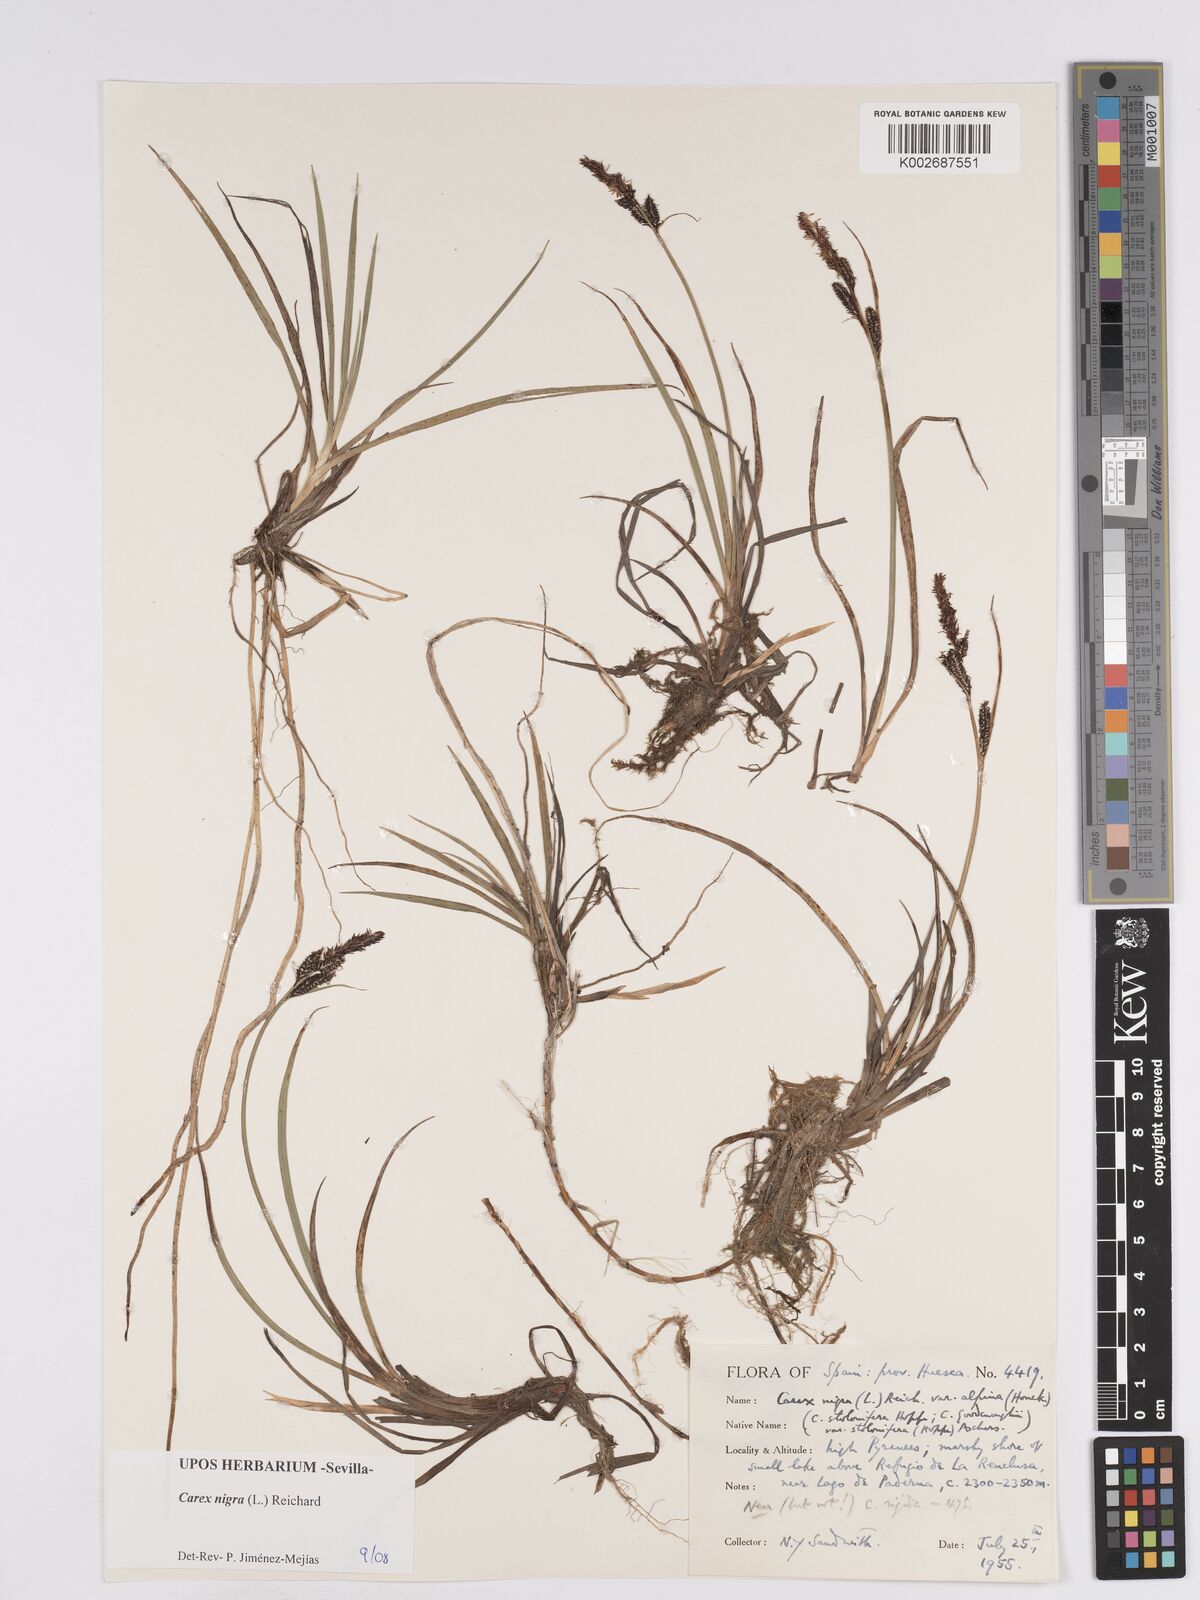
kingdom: Plantae
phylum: Tracheophyta
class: Liliopsida
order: Poales
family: Cyperaceae
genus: Carex
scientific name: Carex nigra
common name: Common sedge
